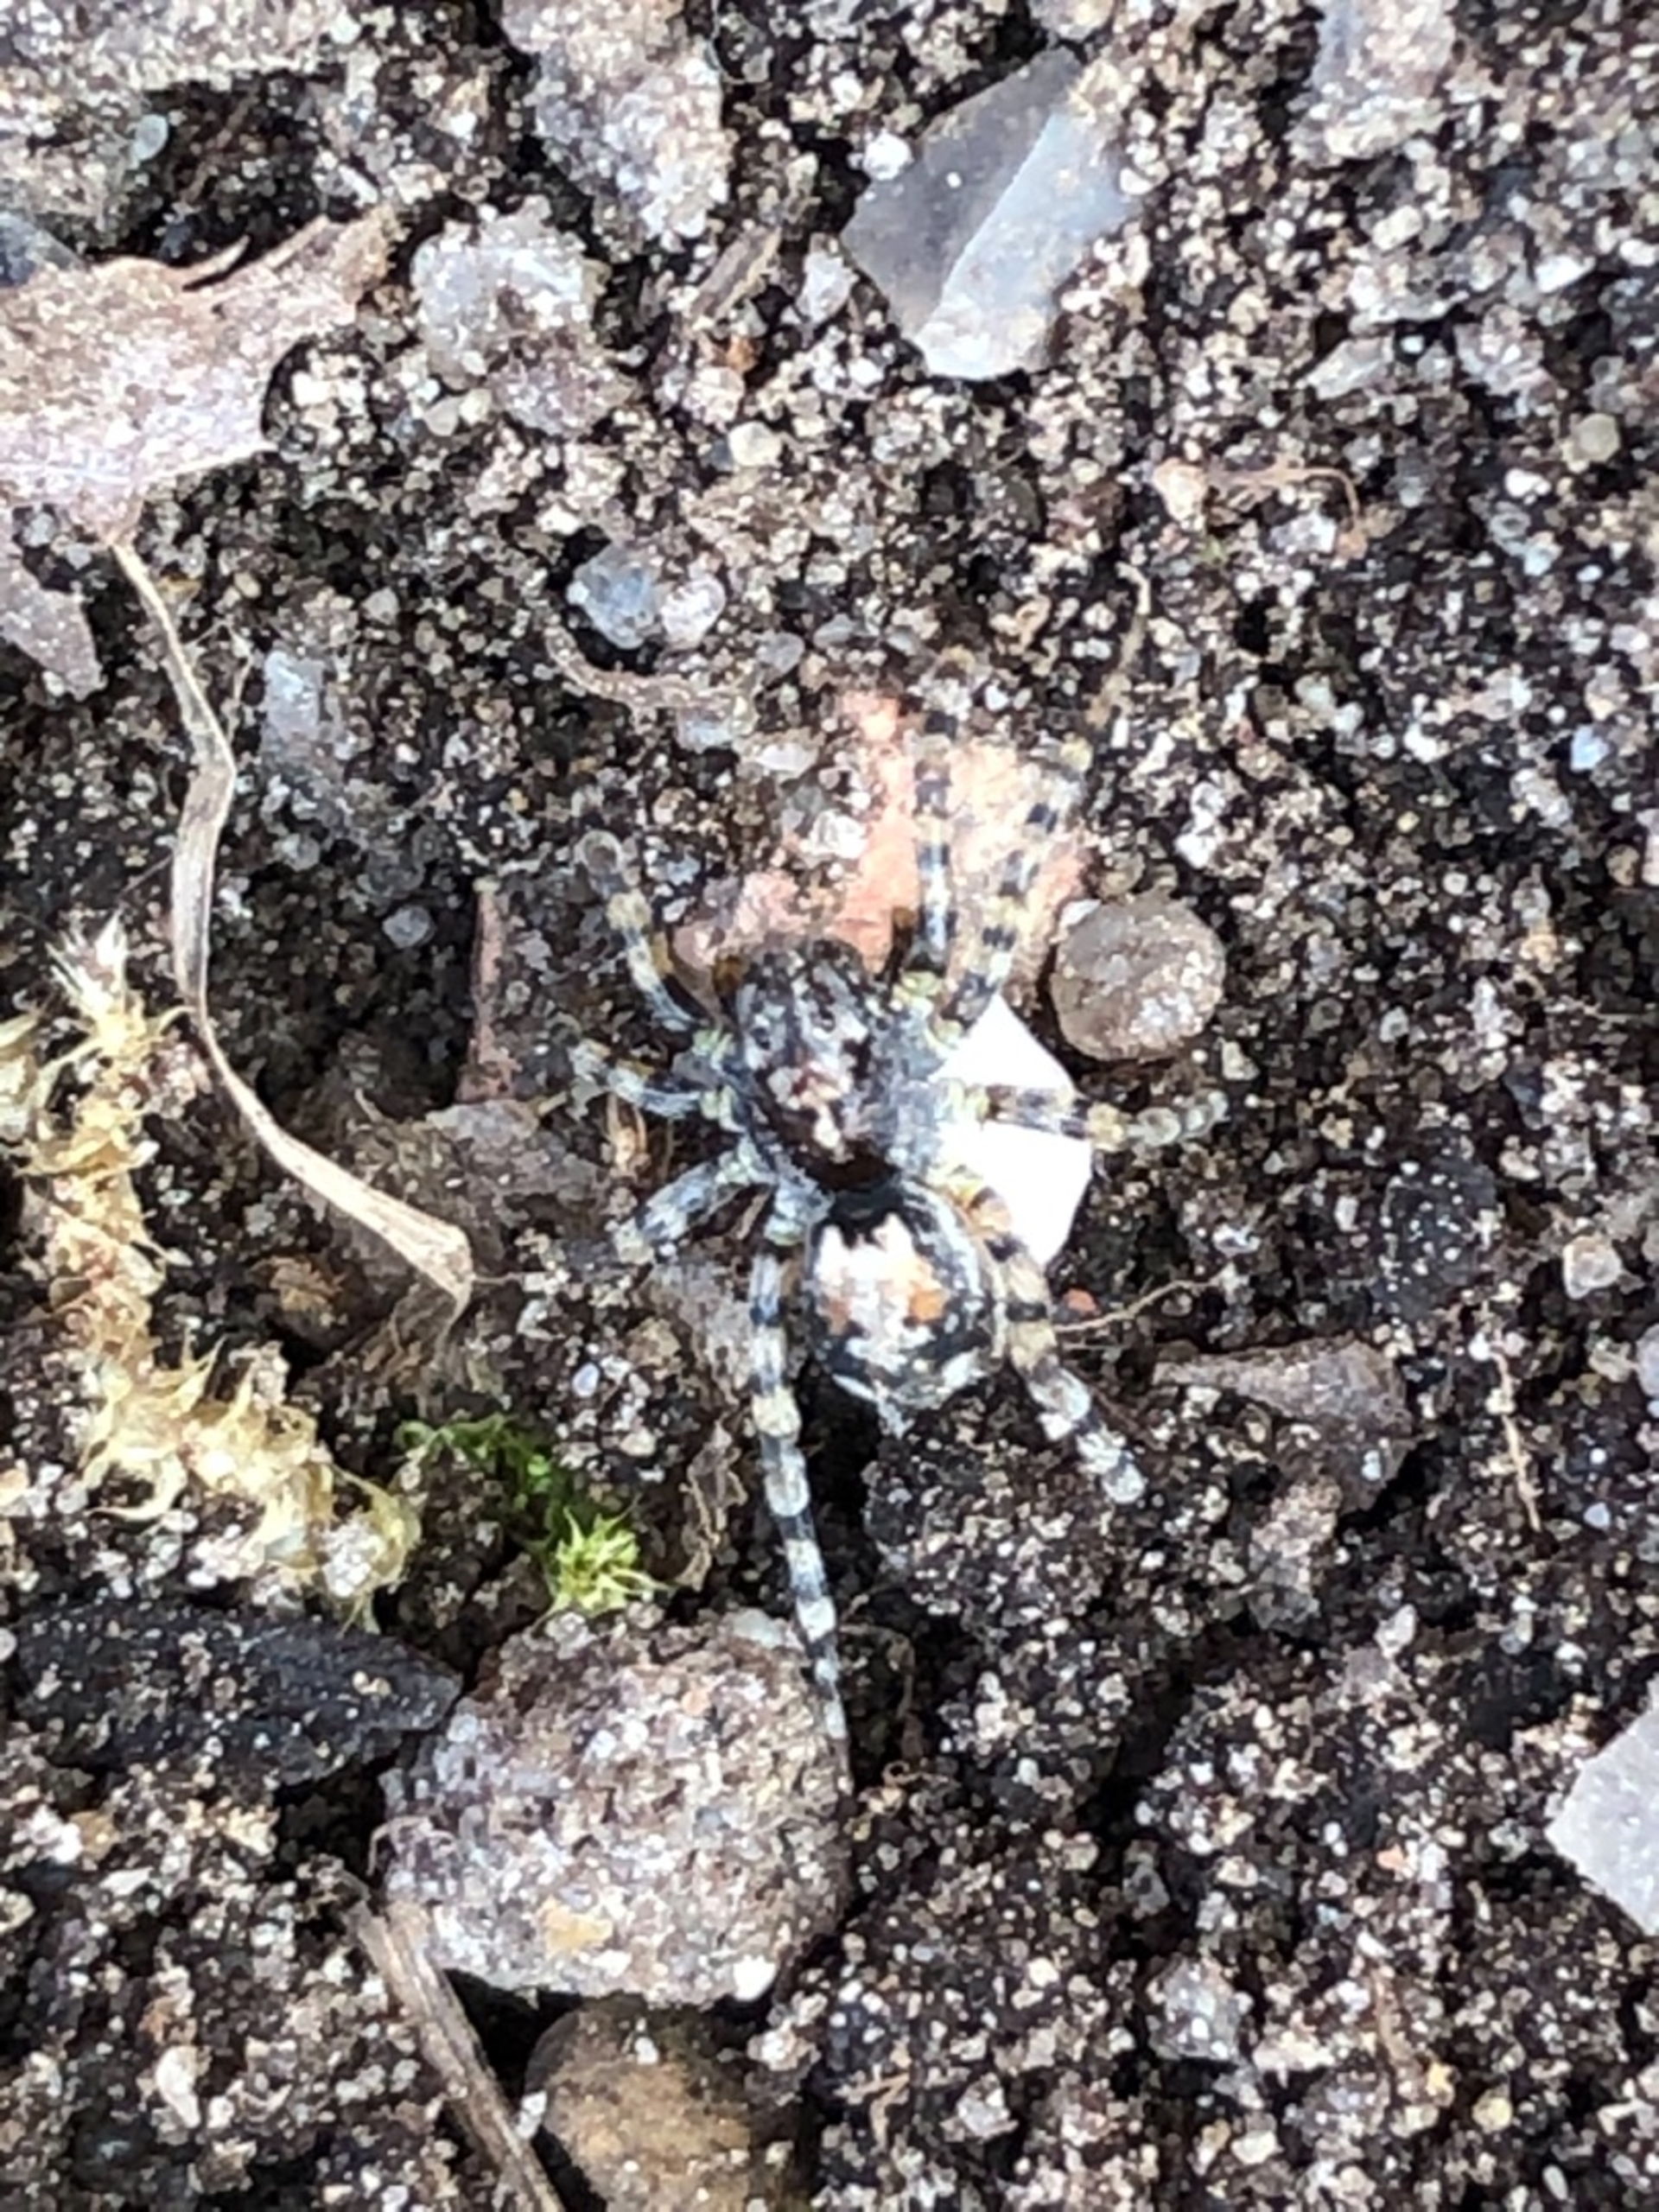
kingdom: Animalia
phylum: Arthropoda
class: Arachnida
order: Araneae
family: Lycosidae
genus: Arctosa
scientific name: Arctosa perita
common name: Klitgraveedderkop
